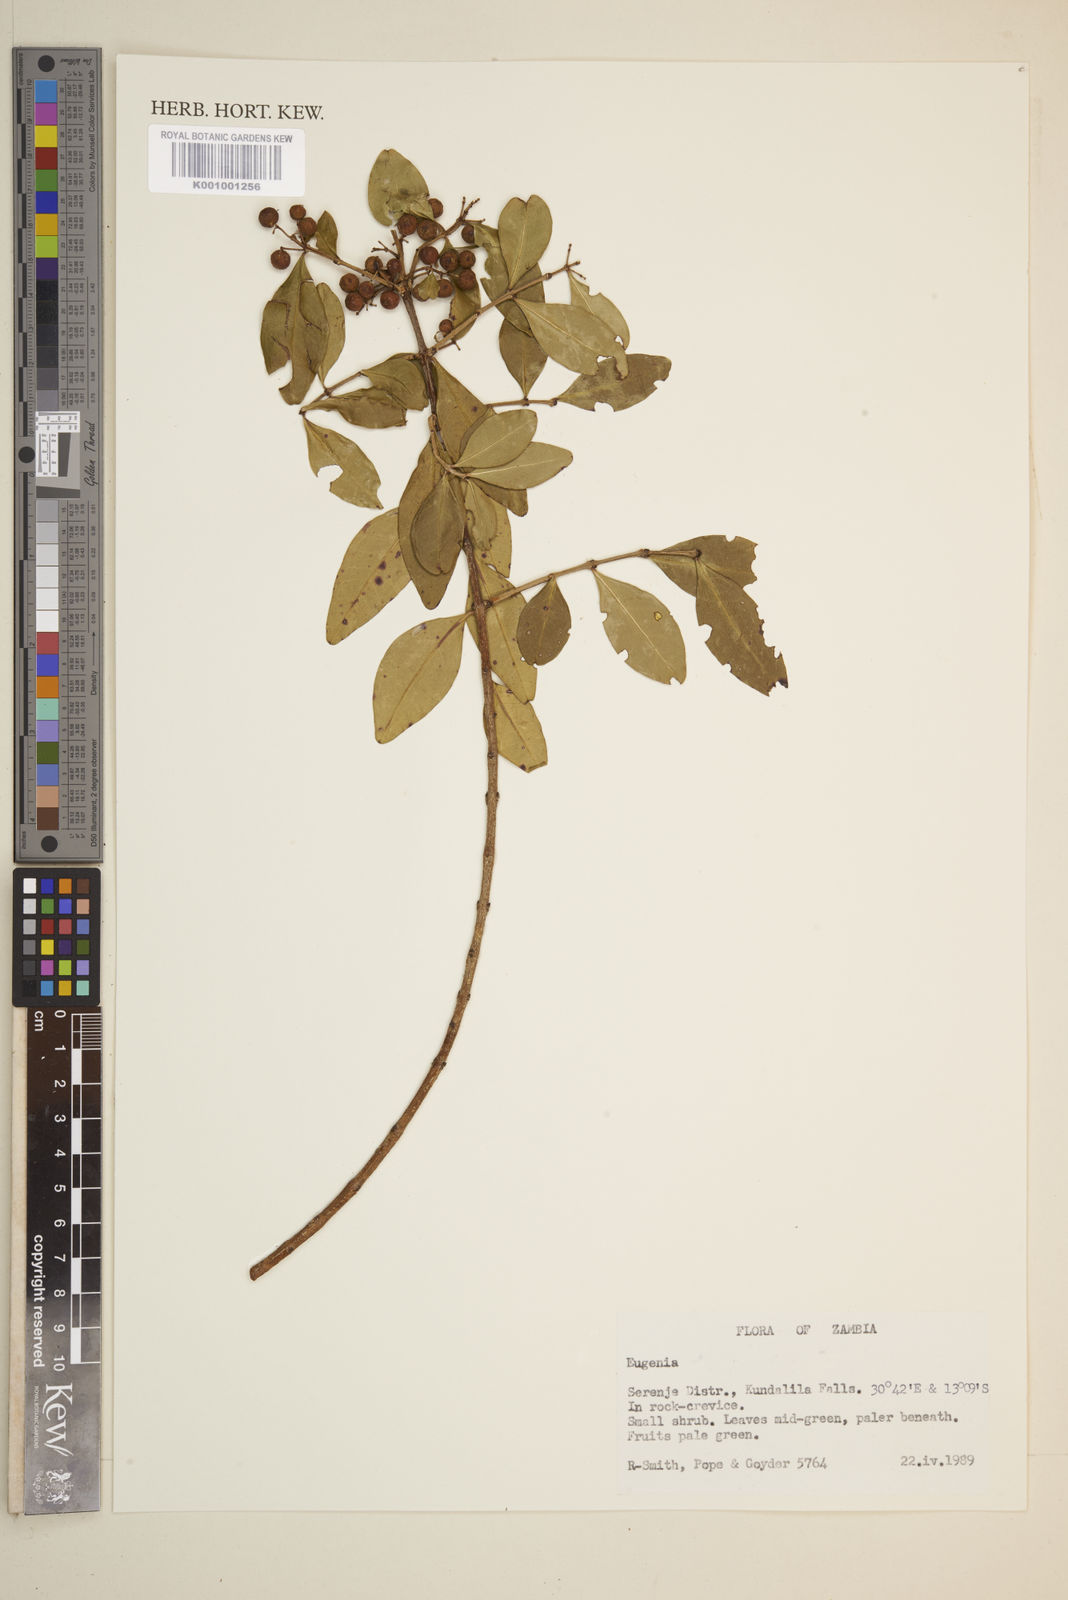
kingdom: Plantae
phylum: Tracheophyta
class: Magnoliopsida
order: Myrtales
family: Myrtaceae
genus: Eugenia
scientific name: Eugenia
